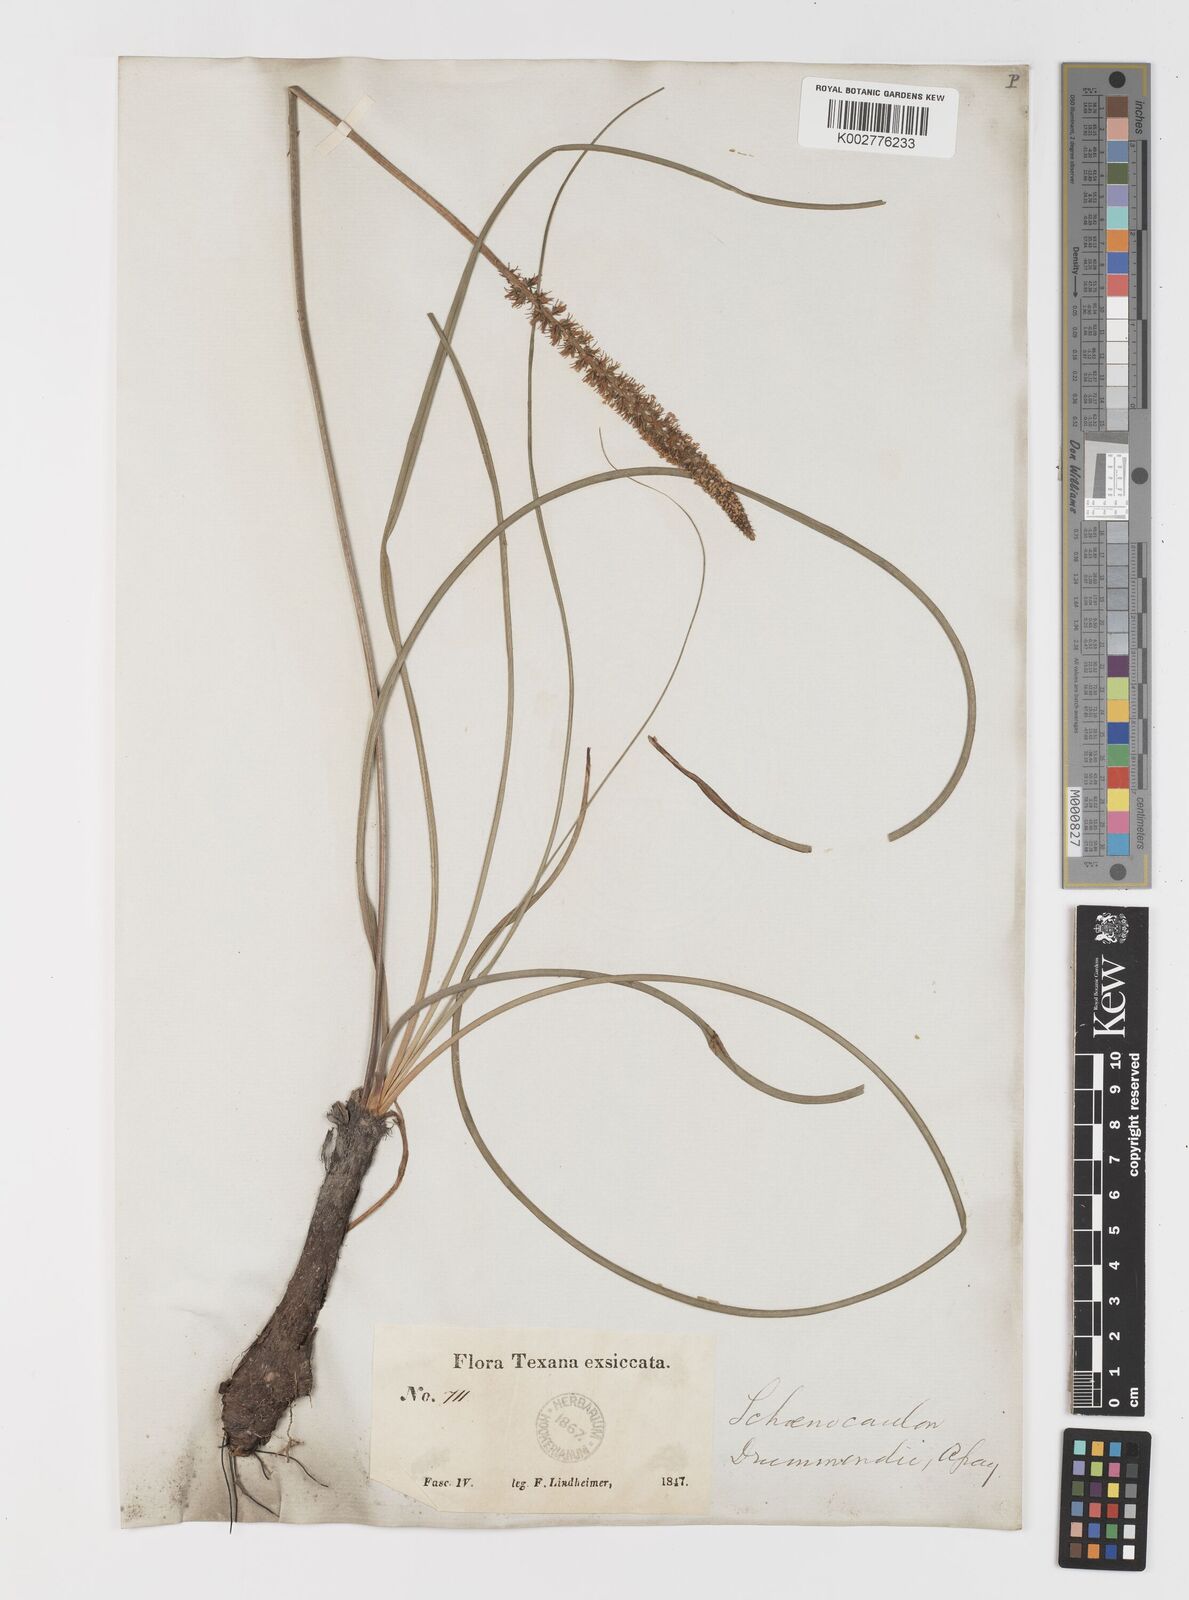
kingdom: Plantae
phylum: Tracheophyta
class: Liliopsida
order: Liliales
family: Melanthiaceae
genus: Schoenocaulon
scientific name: Schoenocaulon texanum
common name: Texas feather-shank
